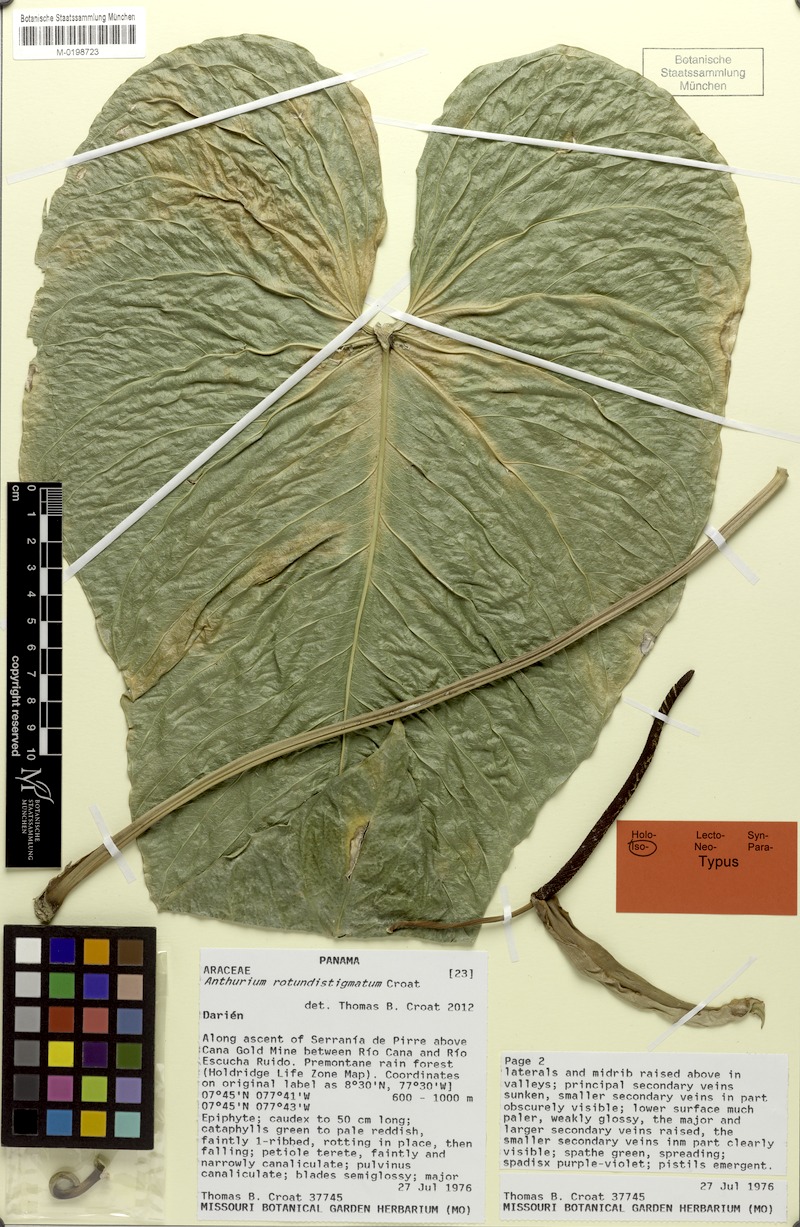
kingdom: Plantae
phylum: Tracheophyta
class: Liliopsida
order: Alismatales
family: Araceae
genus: Anthurium
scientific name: Anthurium rotundistigmatum
